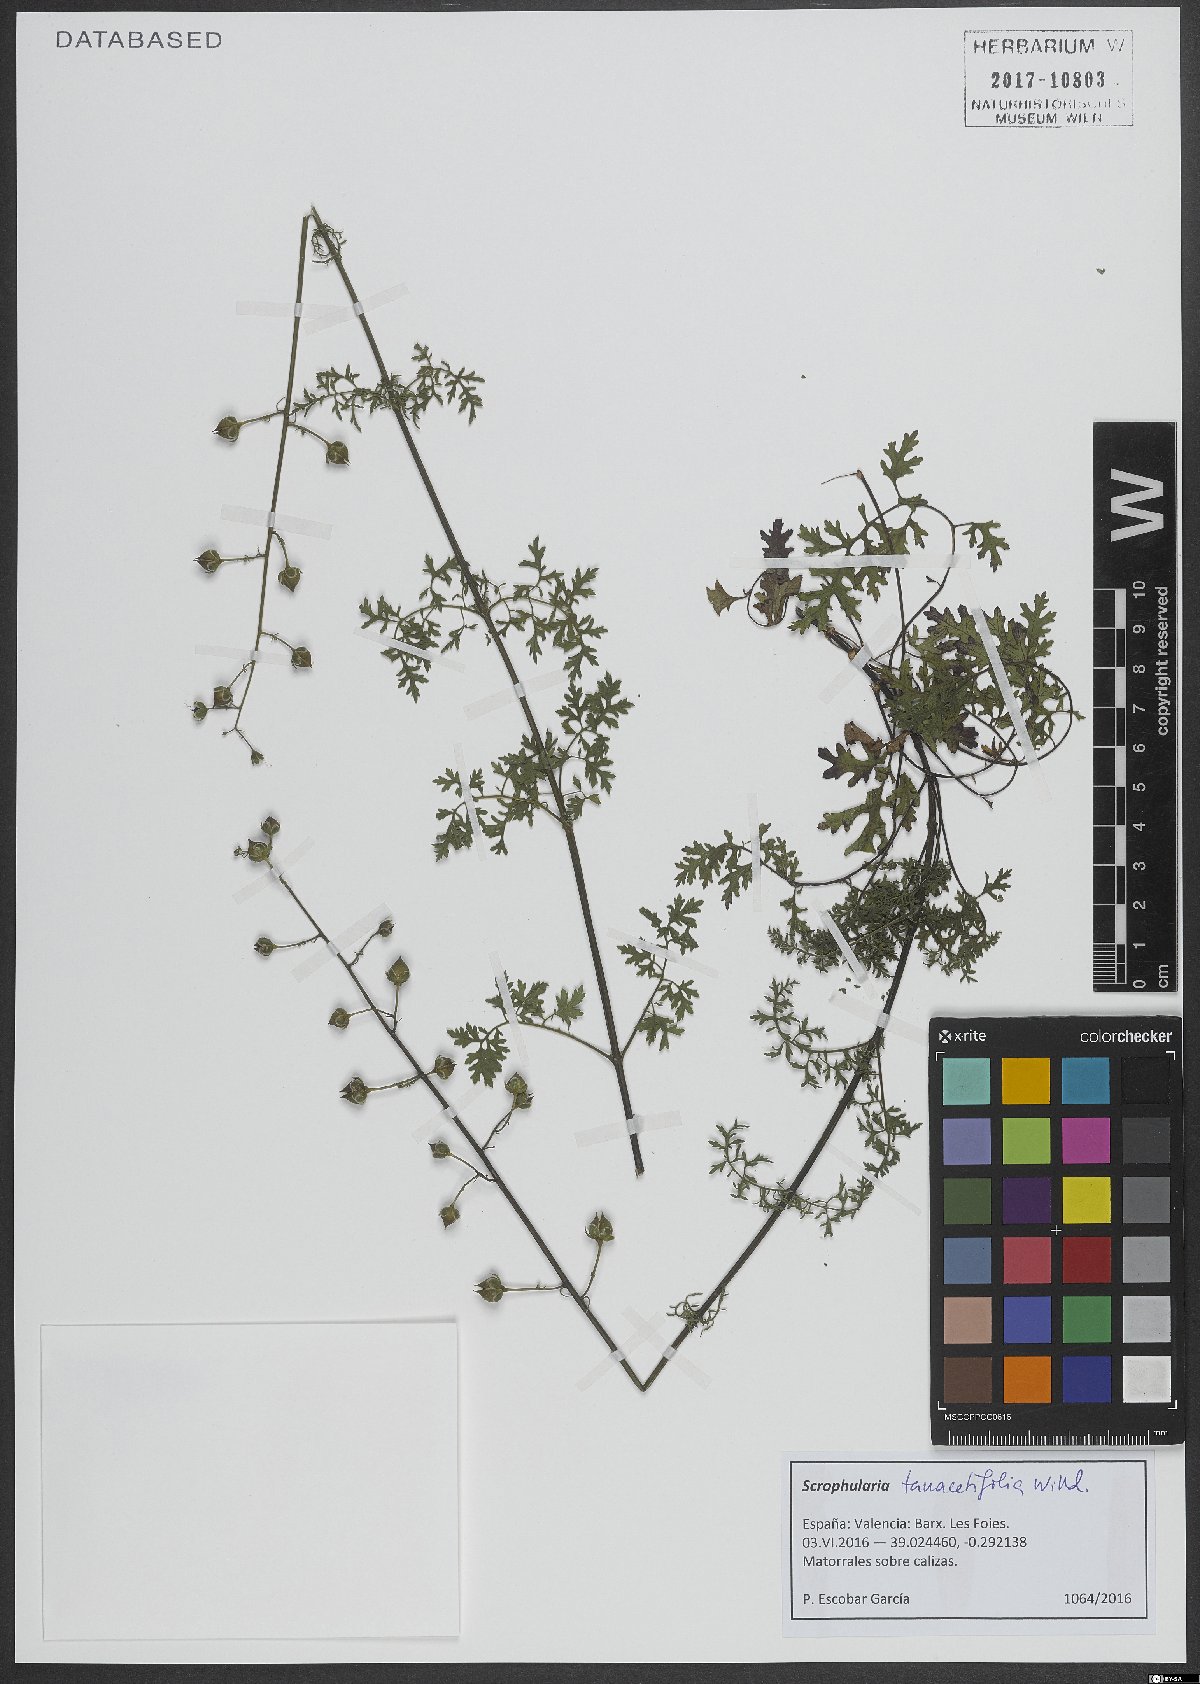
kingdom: Plantae
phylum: Tracheophyta
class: Magnoliopsida
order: Lamiales
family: Scrophulariaceae
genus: Scrophularia
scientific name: Scrophularia tanacetifolia
